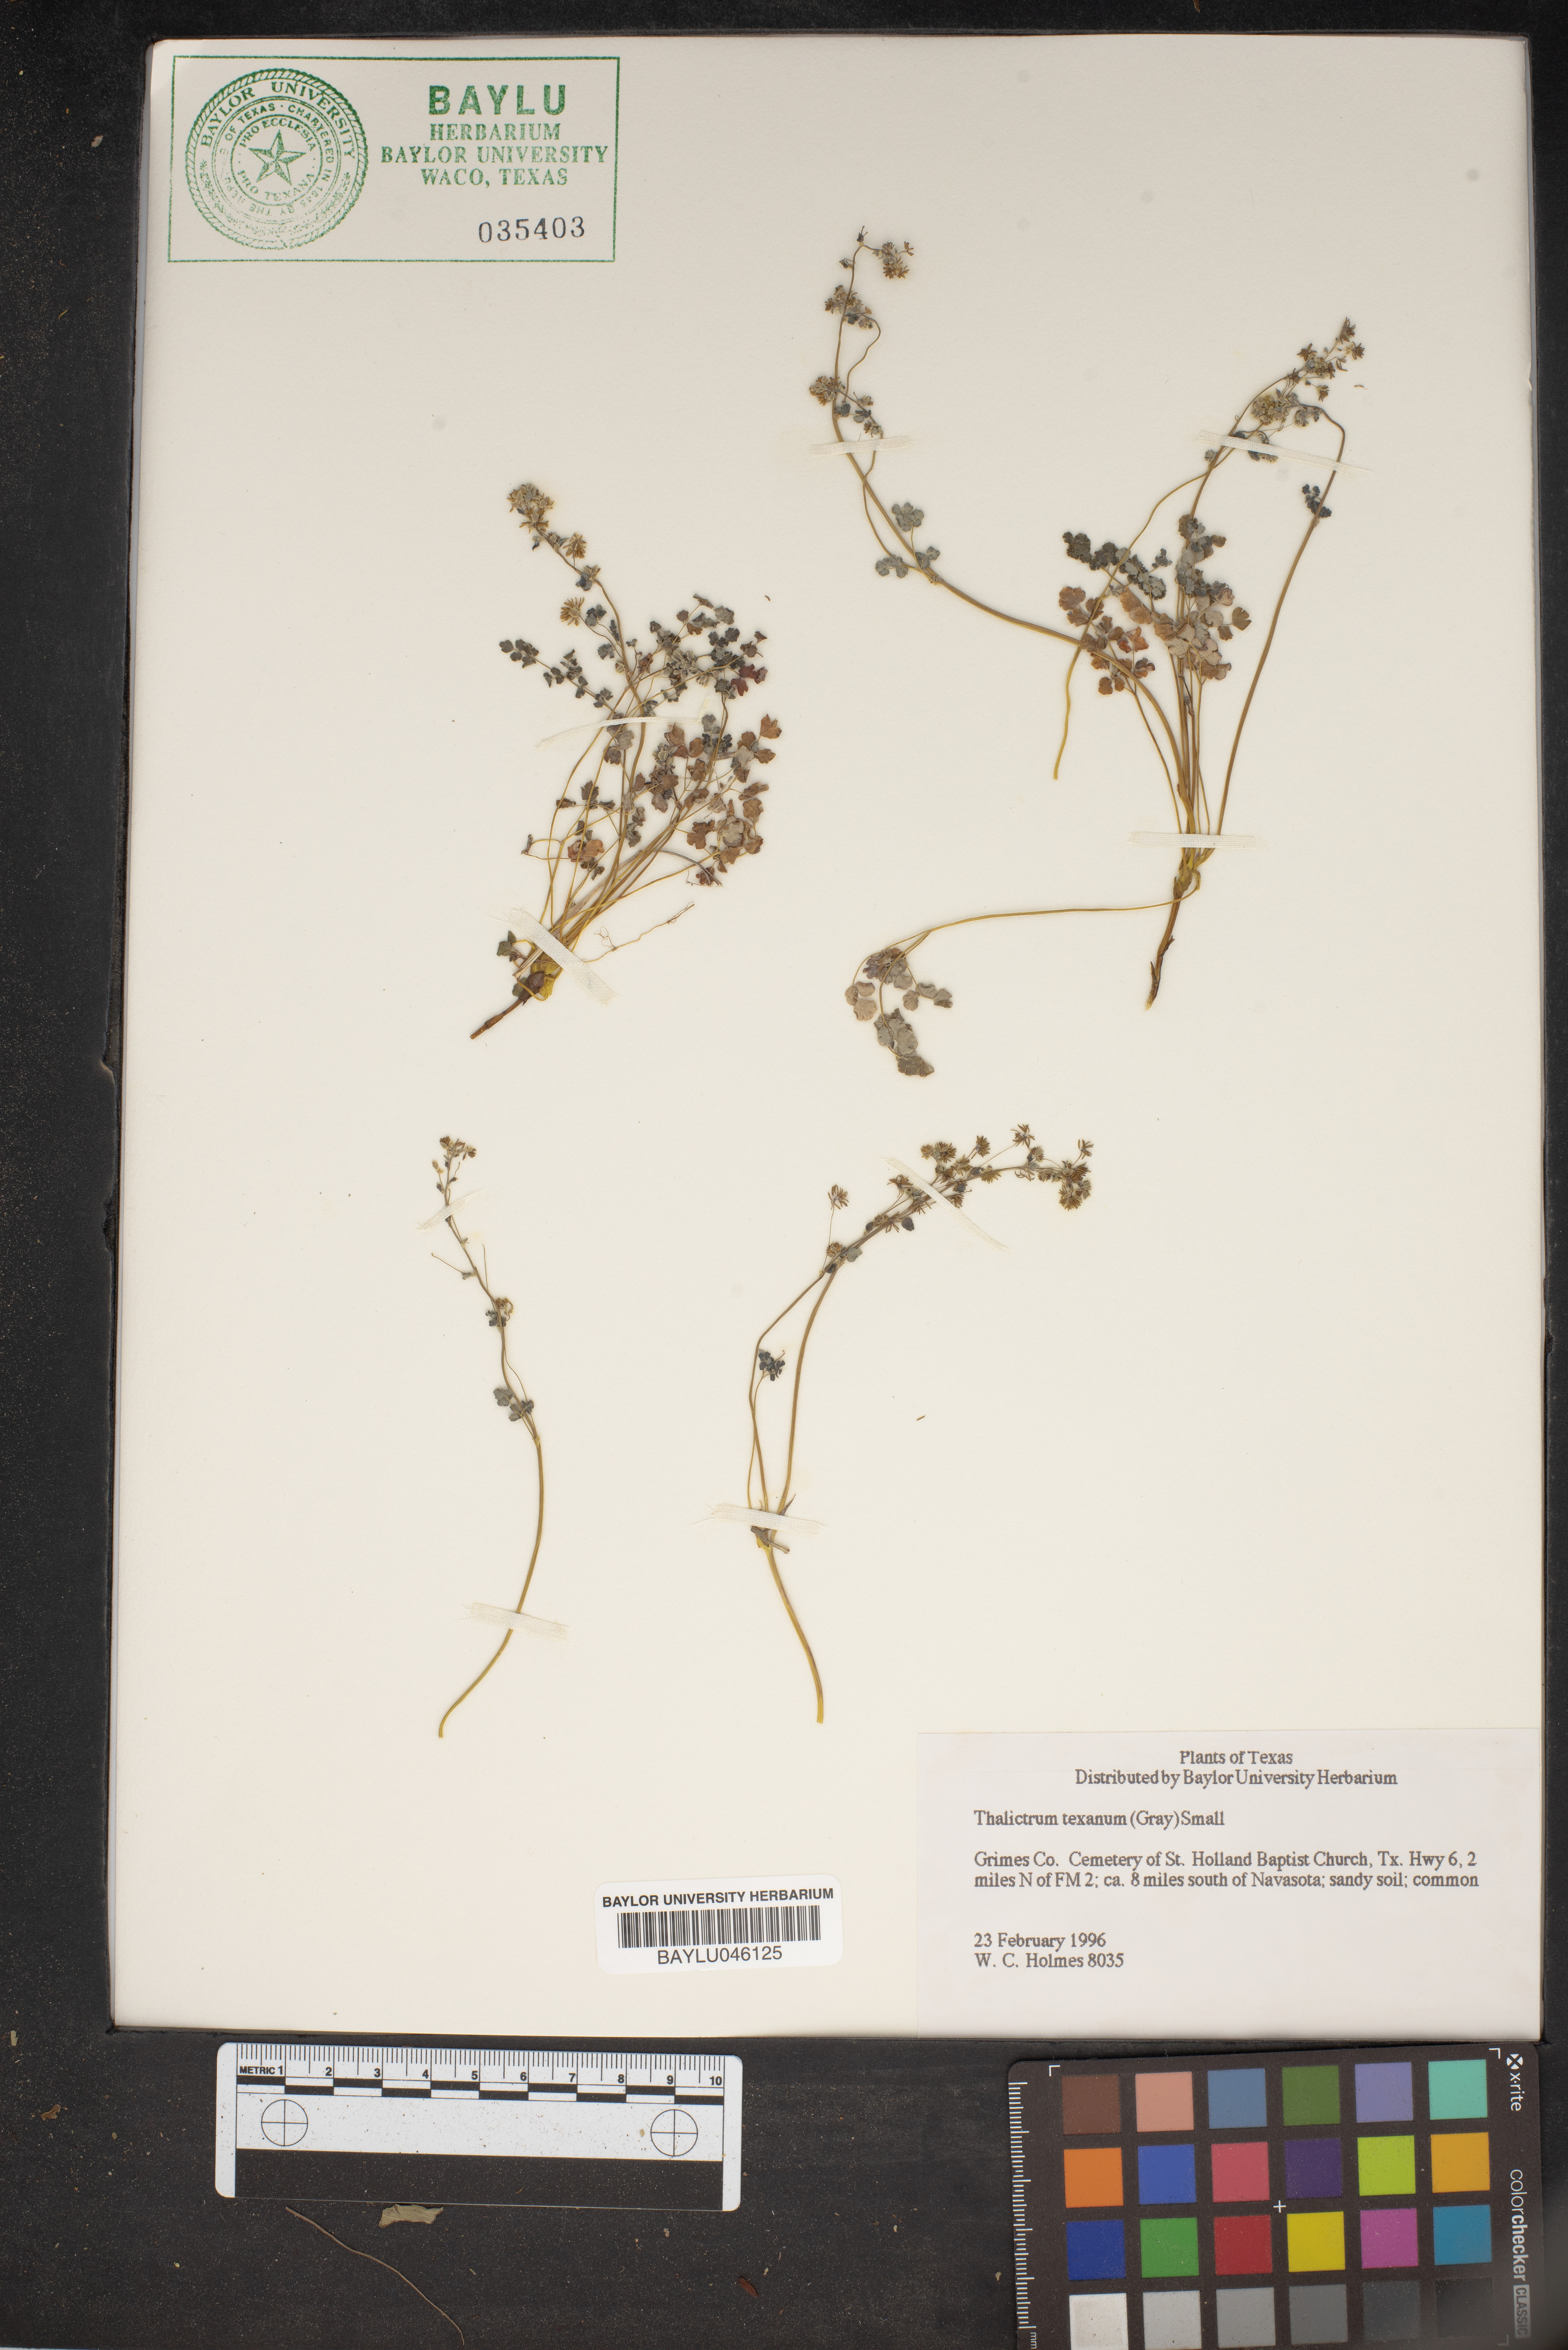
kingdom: Plantae
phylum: Tracheophyta
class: Magnoliopsida
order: Ranunculales
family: Ranunculaceae
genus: Thalictrum
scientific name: Thalictrum texanum
